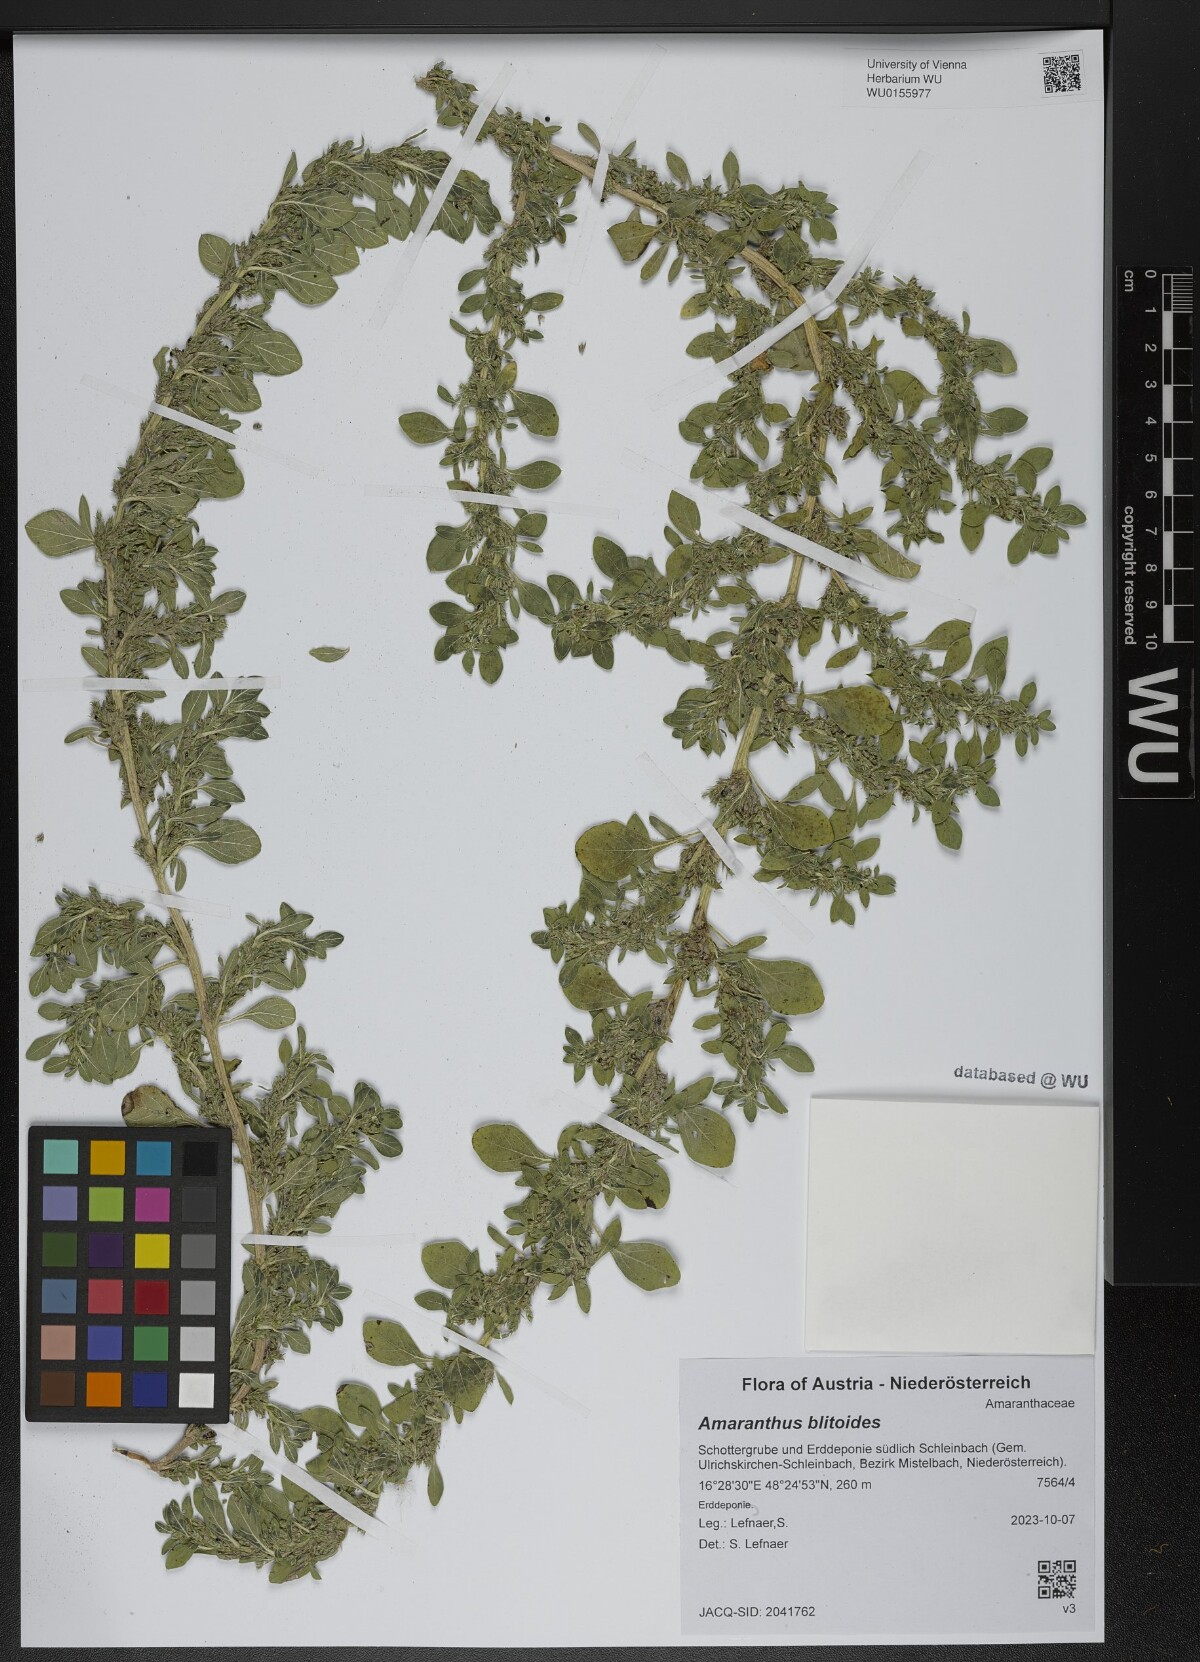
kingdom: Plantae
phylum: Tracheophyta
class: Magnoliopsida
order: Caryophyllales
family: Amaranthaceae
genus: Amaranthus
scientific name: Amaranthus blitoides
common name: Prostrate pigweed
